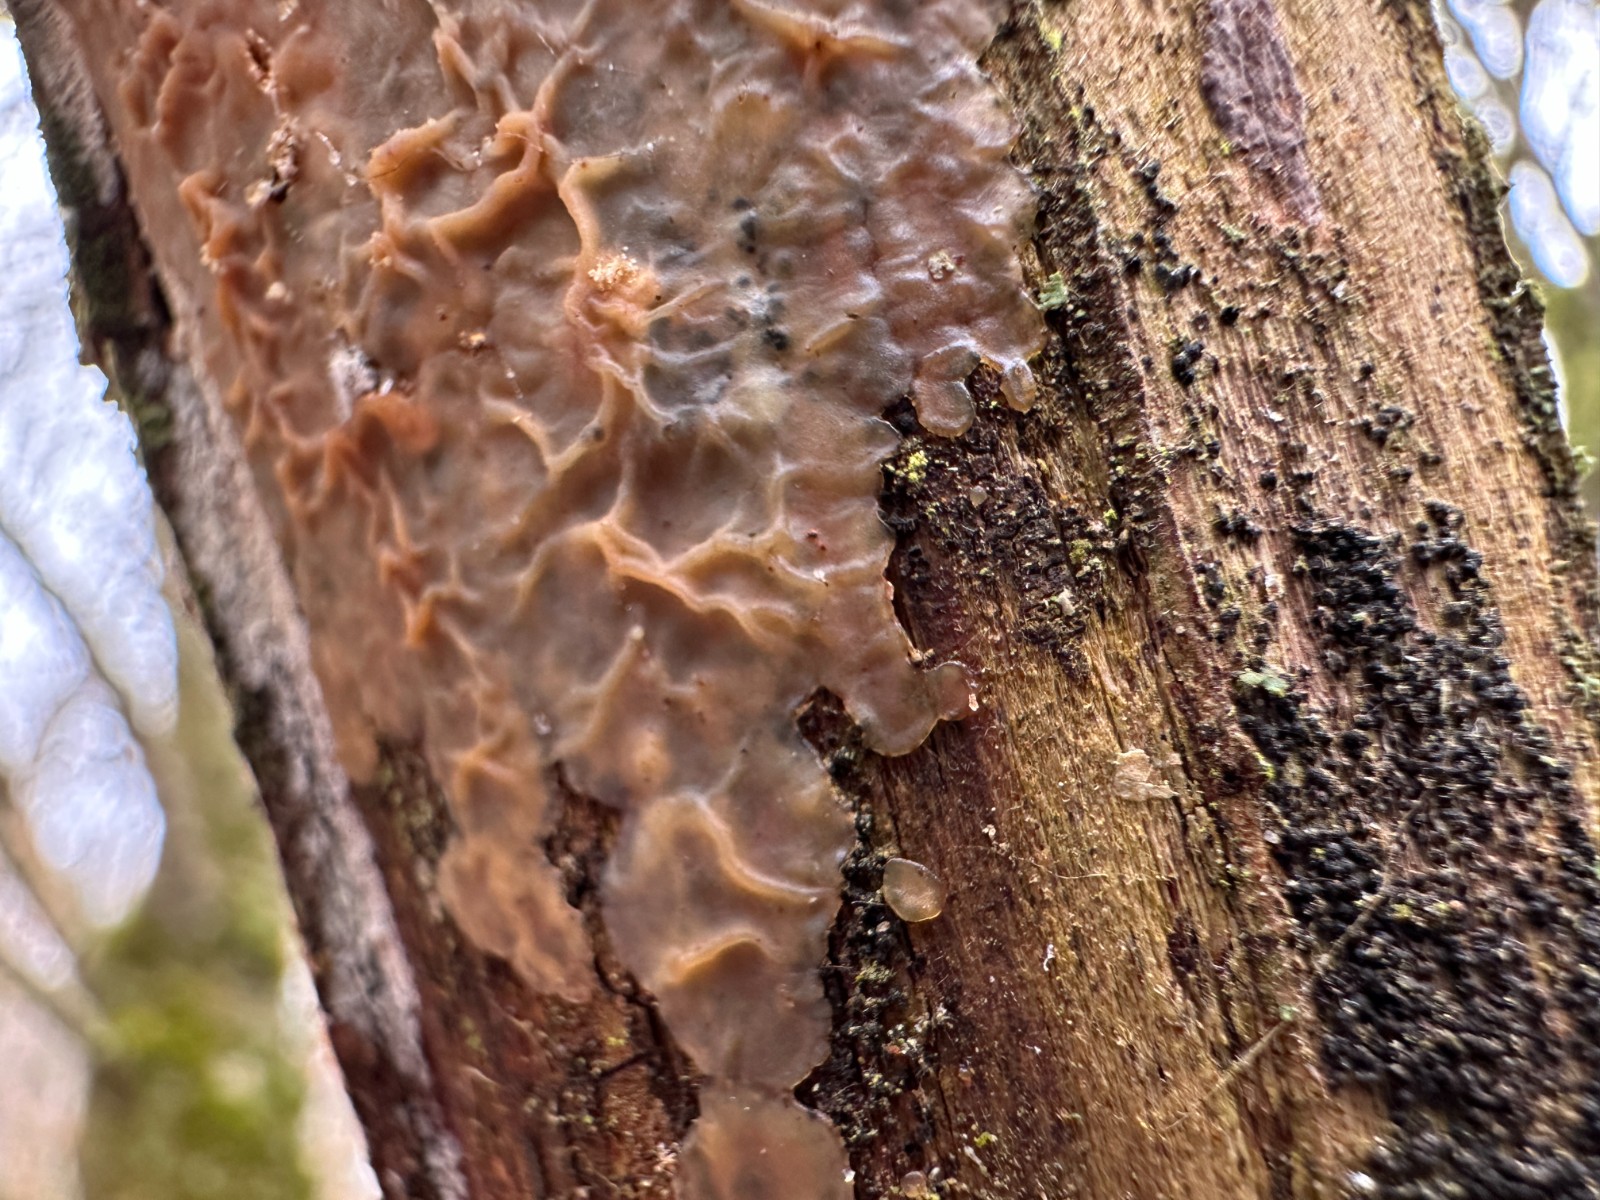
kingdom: Fungi
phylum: Basidiomycota
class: Agaricomycetes
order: Corticiales
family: Corticiaceae
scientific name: Corticiaceae
